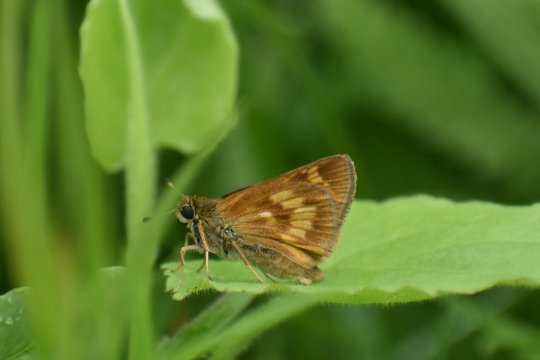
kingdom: Animalia
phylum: Arthropoda
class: Insecta
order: Lepidoptera
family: Hesperiidae
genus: Polites
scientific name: Polites
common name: Long Dash Skipper
